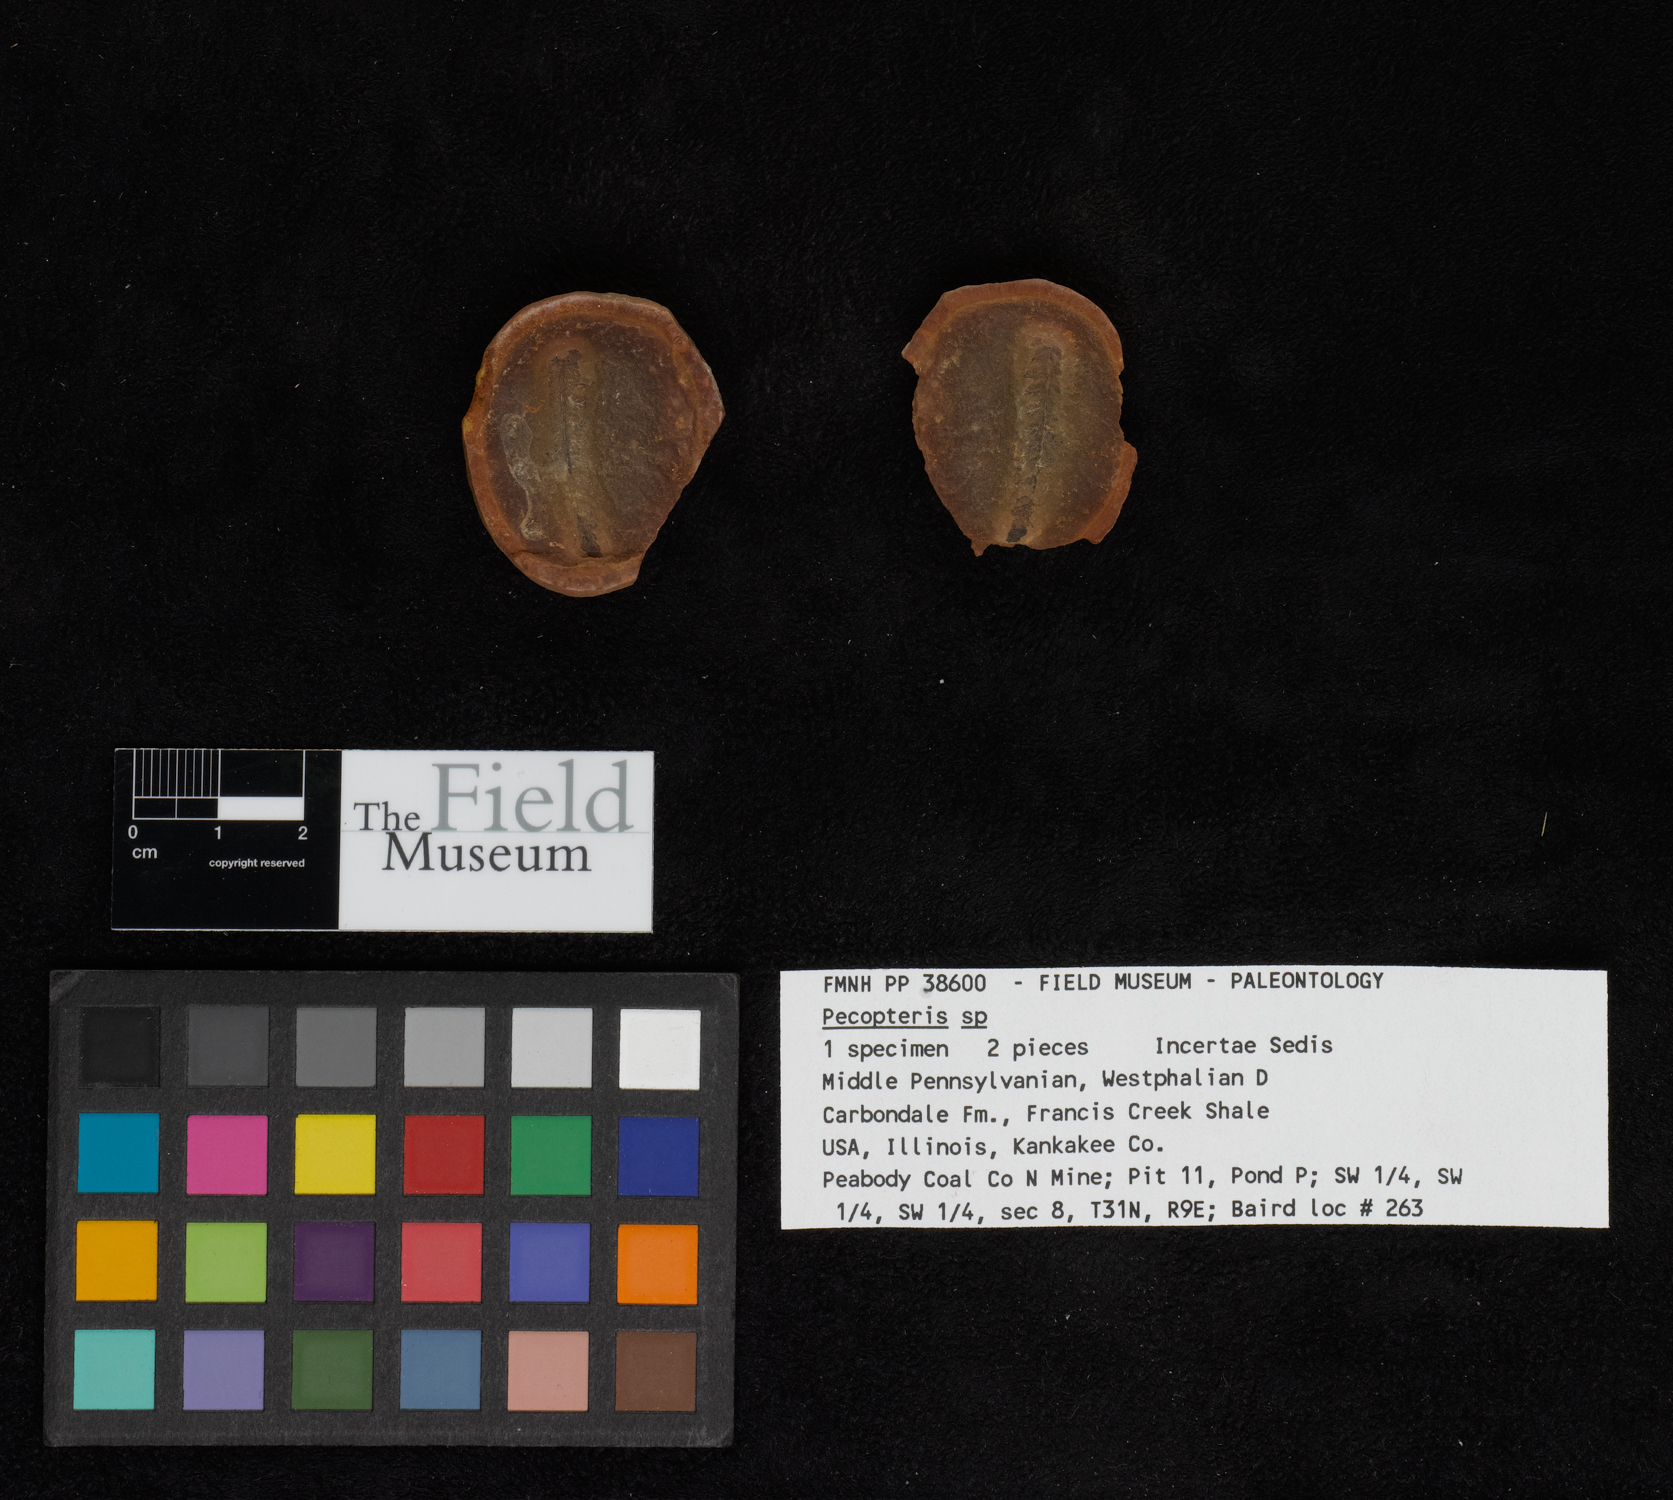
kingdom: Plantae
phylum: Tracheophyta
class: Polypodiopsida
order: Marattiales
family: Asterothecaceae
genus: Pecopteris
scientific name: Pecopteris
